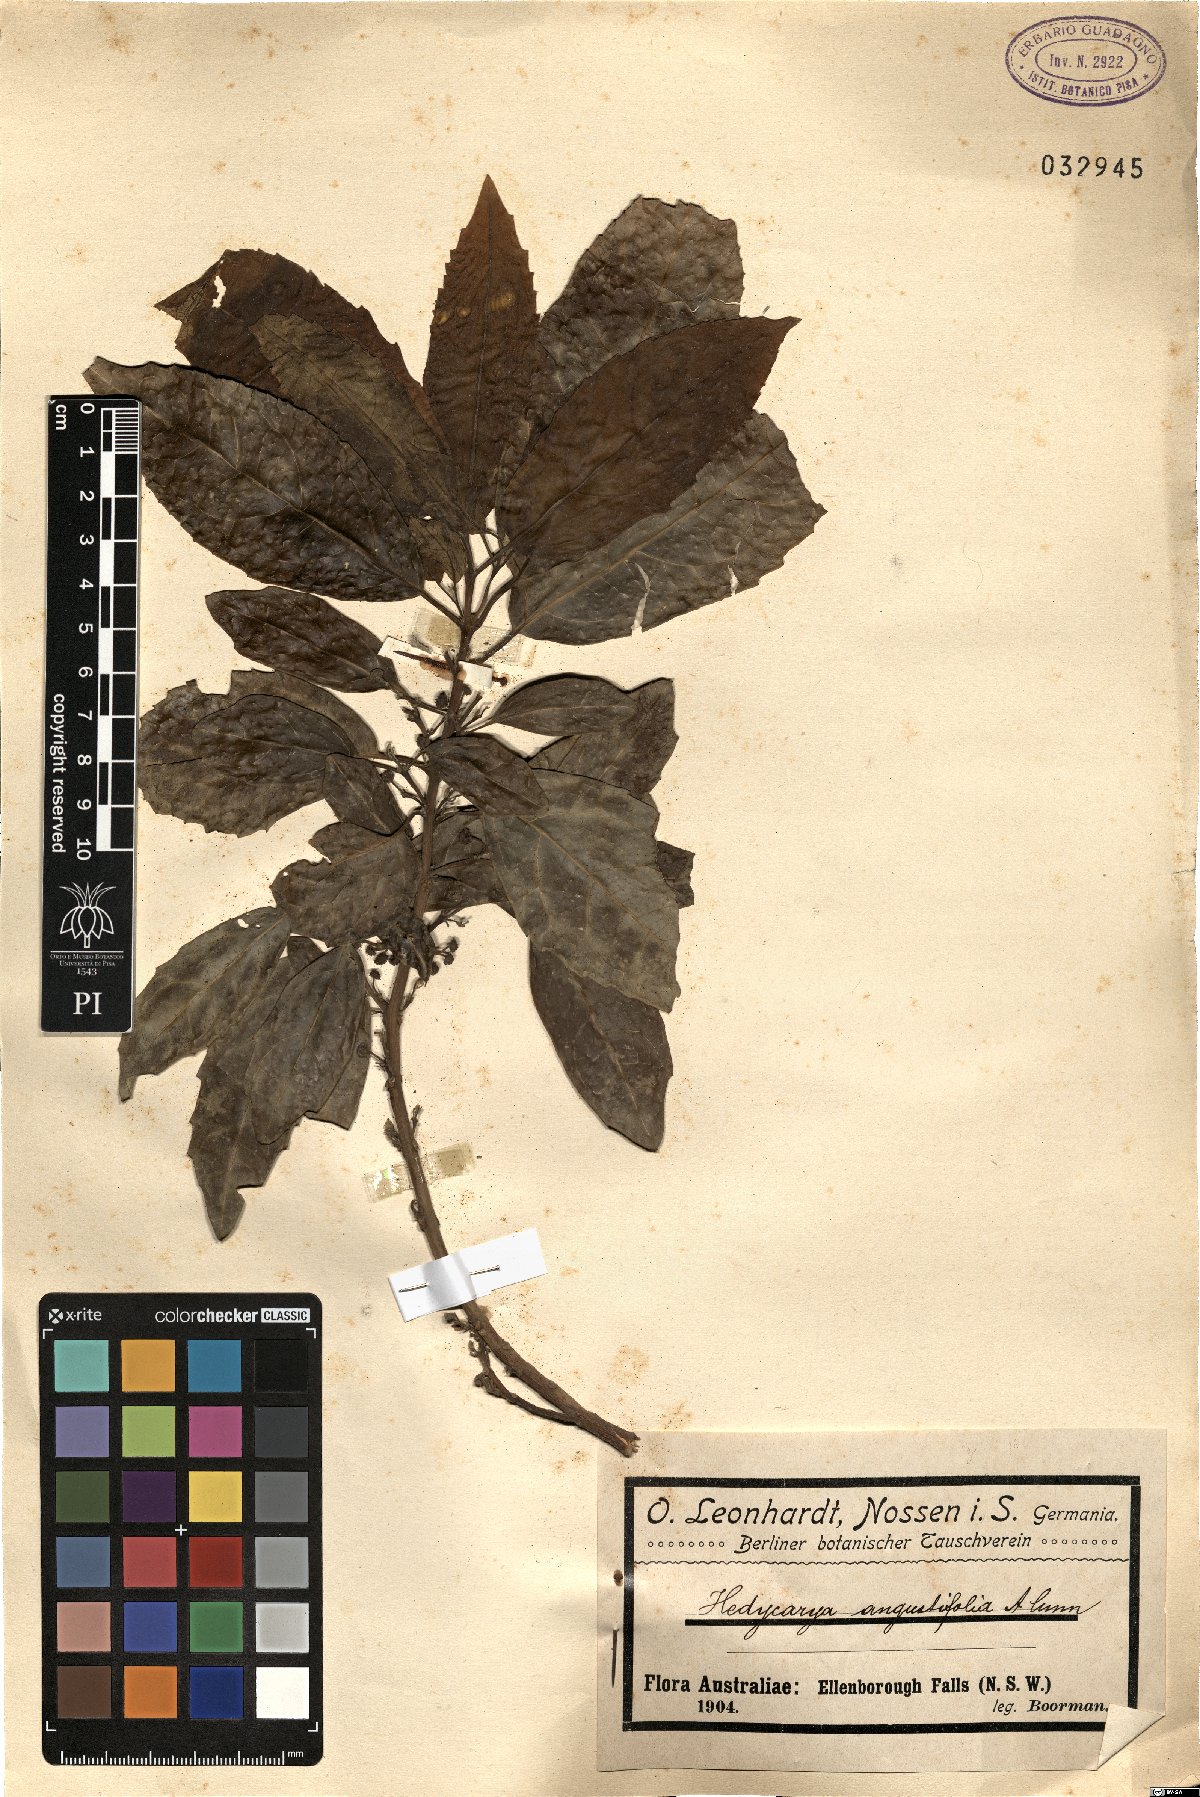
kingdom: Plantae
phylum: Tracheophyta
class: Magnoliopsida
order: Laurales
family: Monimiaceae
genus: Hedycarya
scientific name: Hedycarya angustifolia
